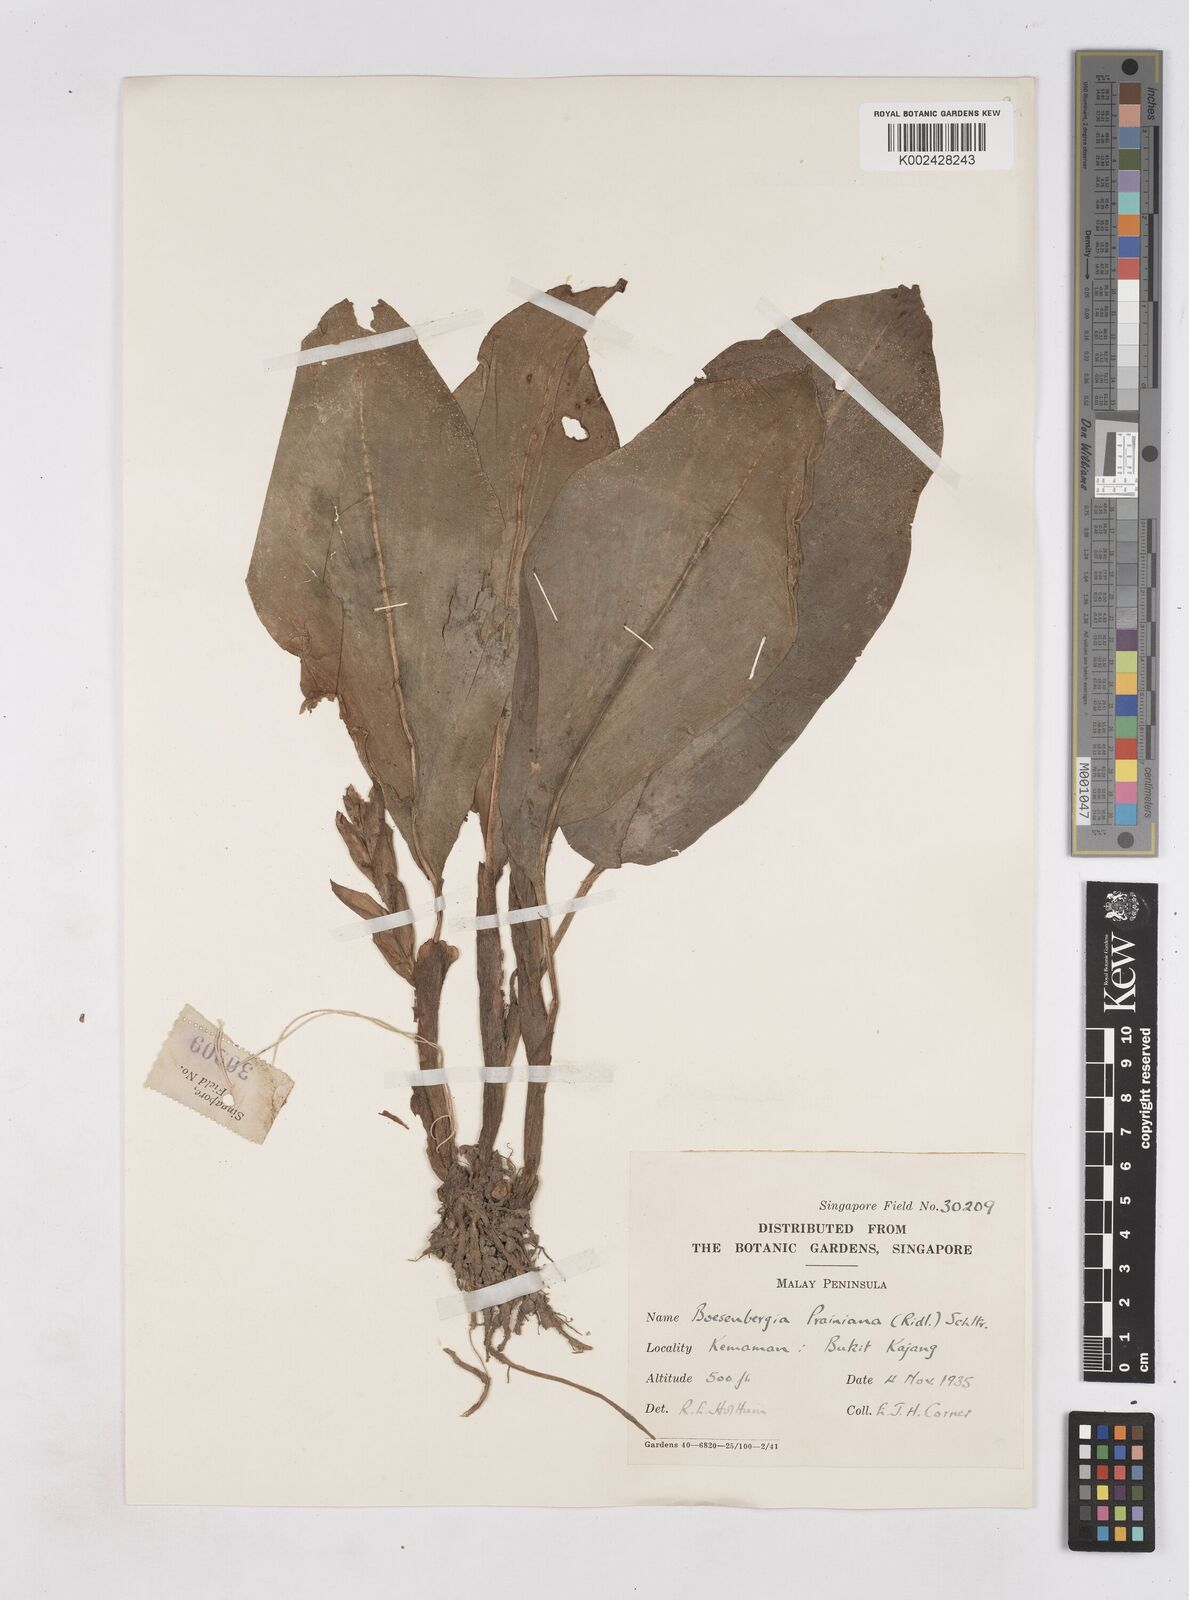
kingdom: Plantae
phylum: Tracheophyta
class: Liliopsida
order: Zingiberales
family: Zingiberaceae
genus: Boesenbergia
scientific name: Boesenbergia prainiana
